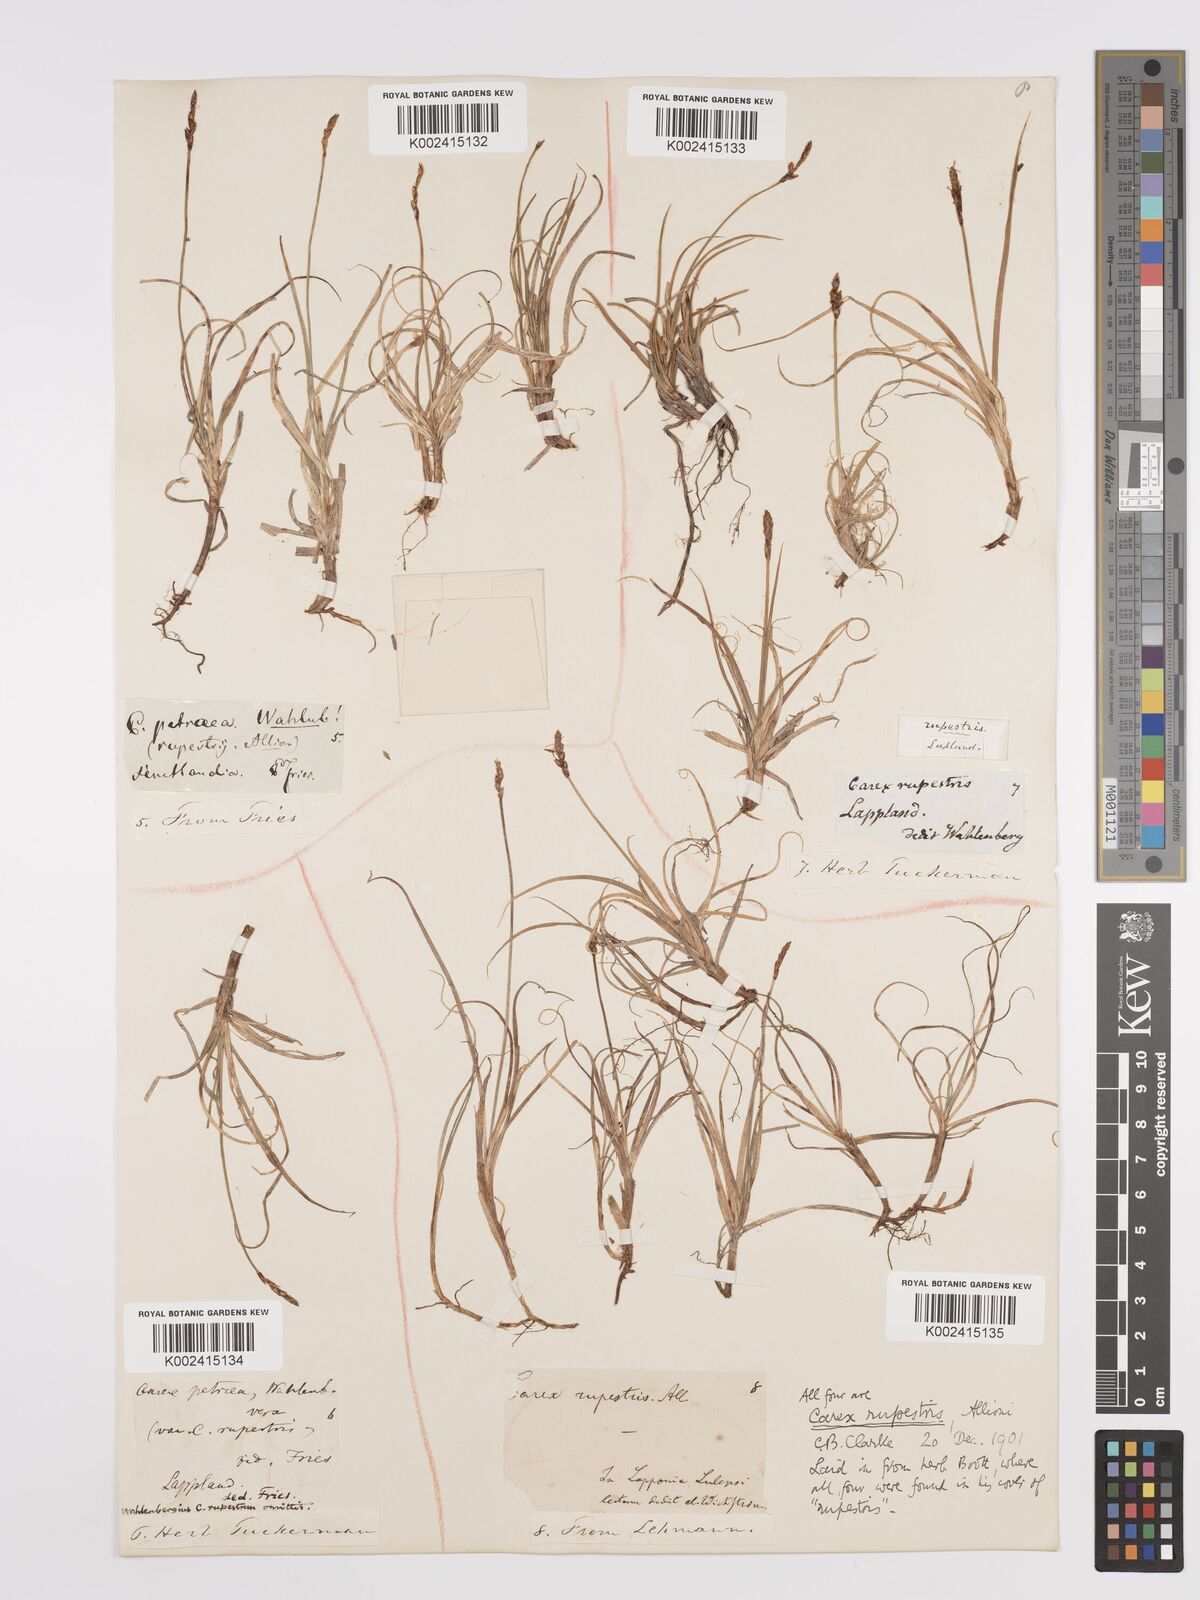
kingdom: Plantae
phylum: Tracheophyta
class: Liliopsida
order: Poales
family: Cyperaceae
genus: Carex
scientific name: Carex rupestris
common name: Rock sedge
